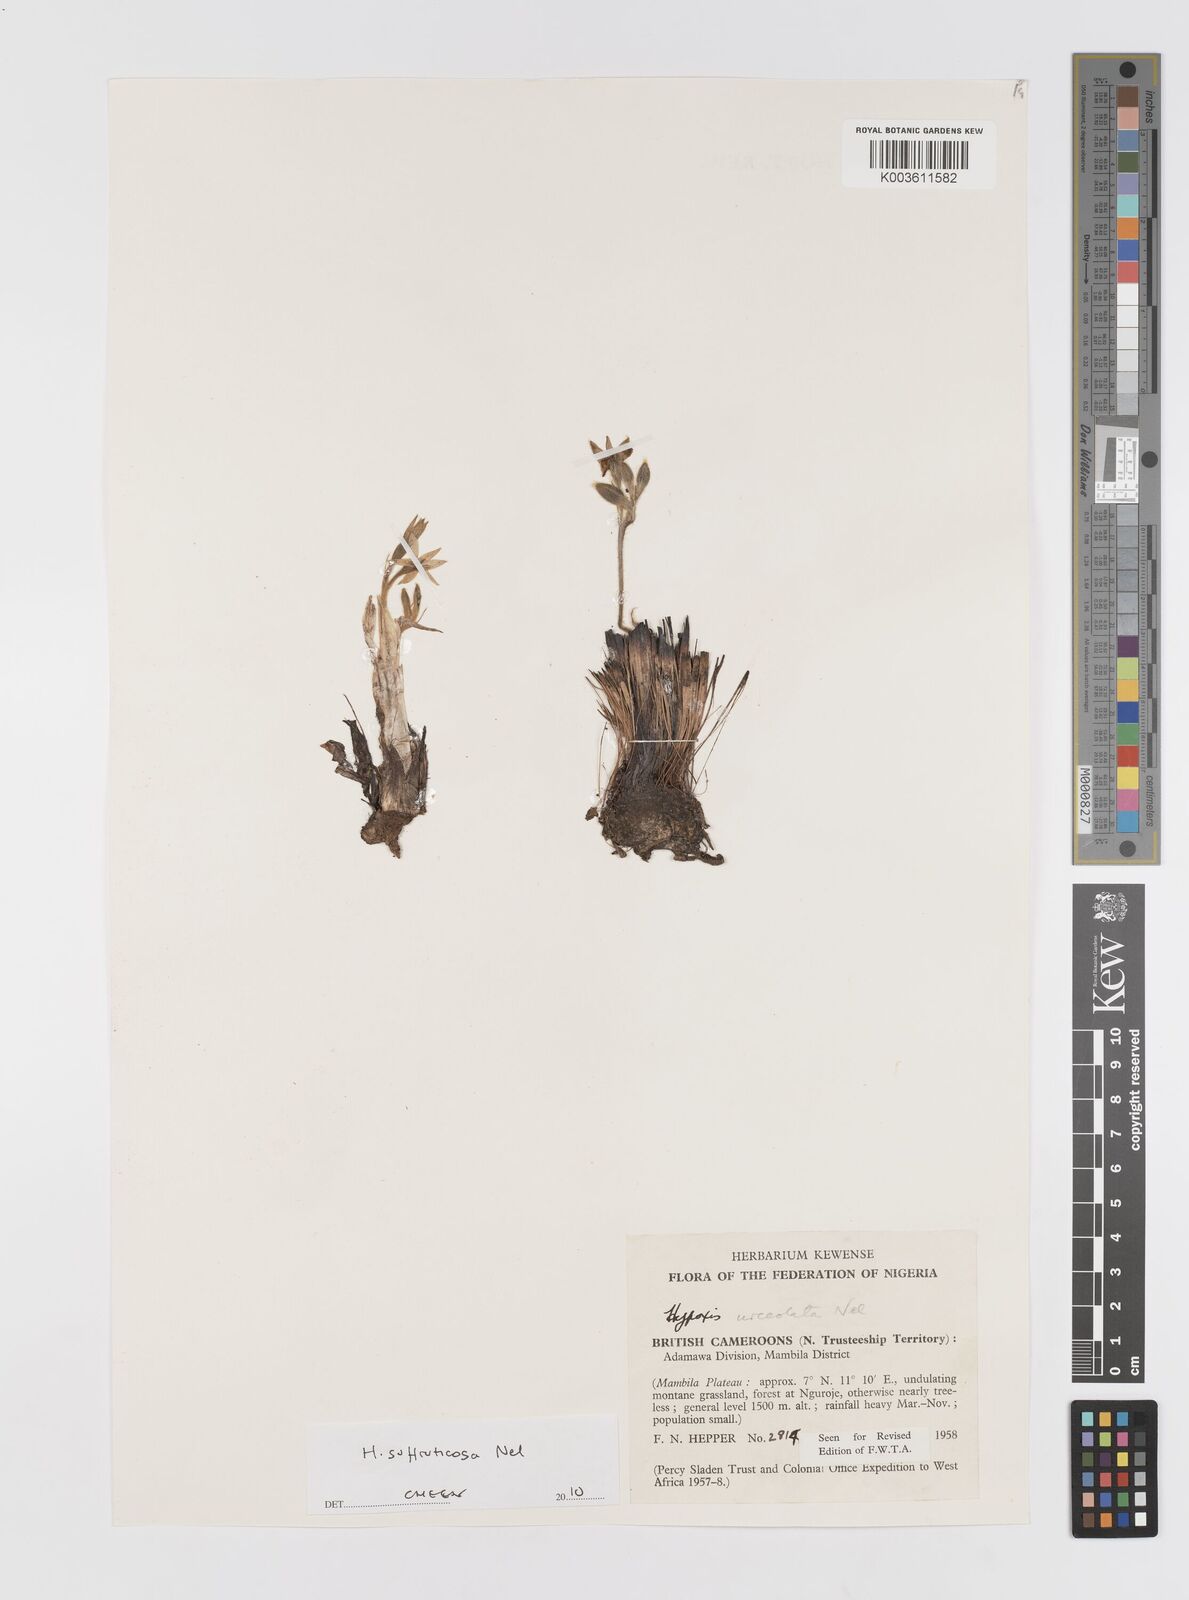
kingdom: Plantae
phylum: Tracheophyta
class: Liliopsida
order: Asparagales
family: Hypoxidaceae
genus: Hypoxis
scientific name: Hypoxis suffruticosa
